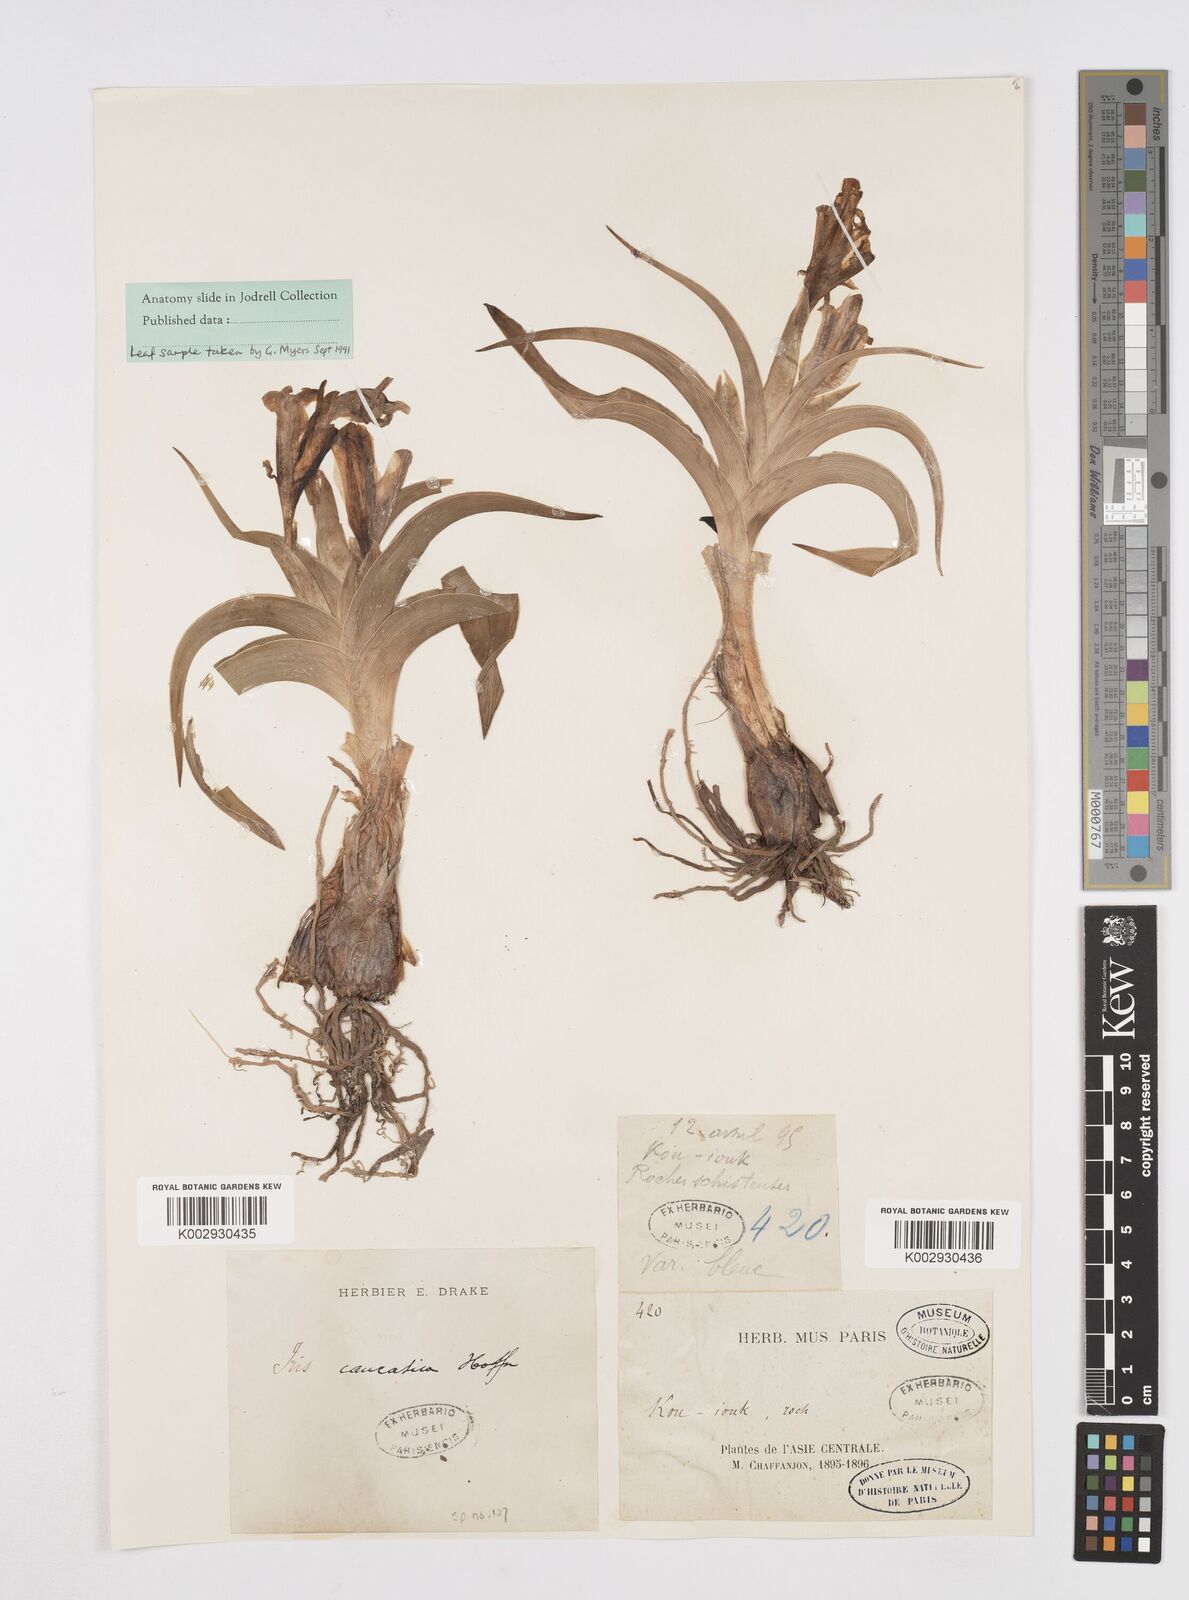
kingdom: Plantae
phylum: Tracheophyta
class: Liliopsida
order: Asparagales
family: Iridaceae
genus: Iris
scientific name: Iris
